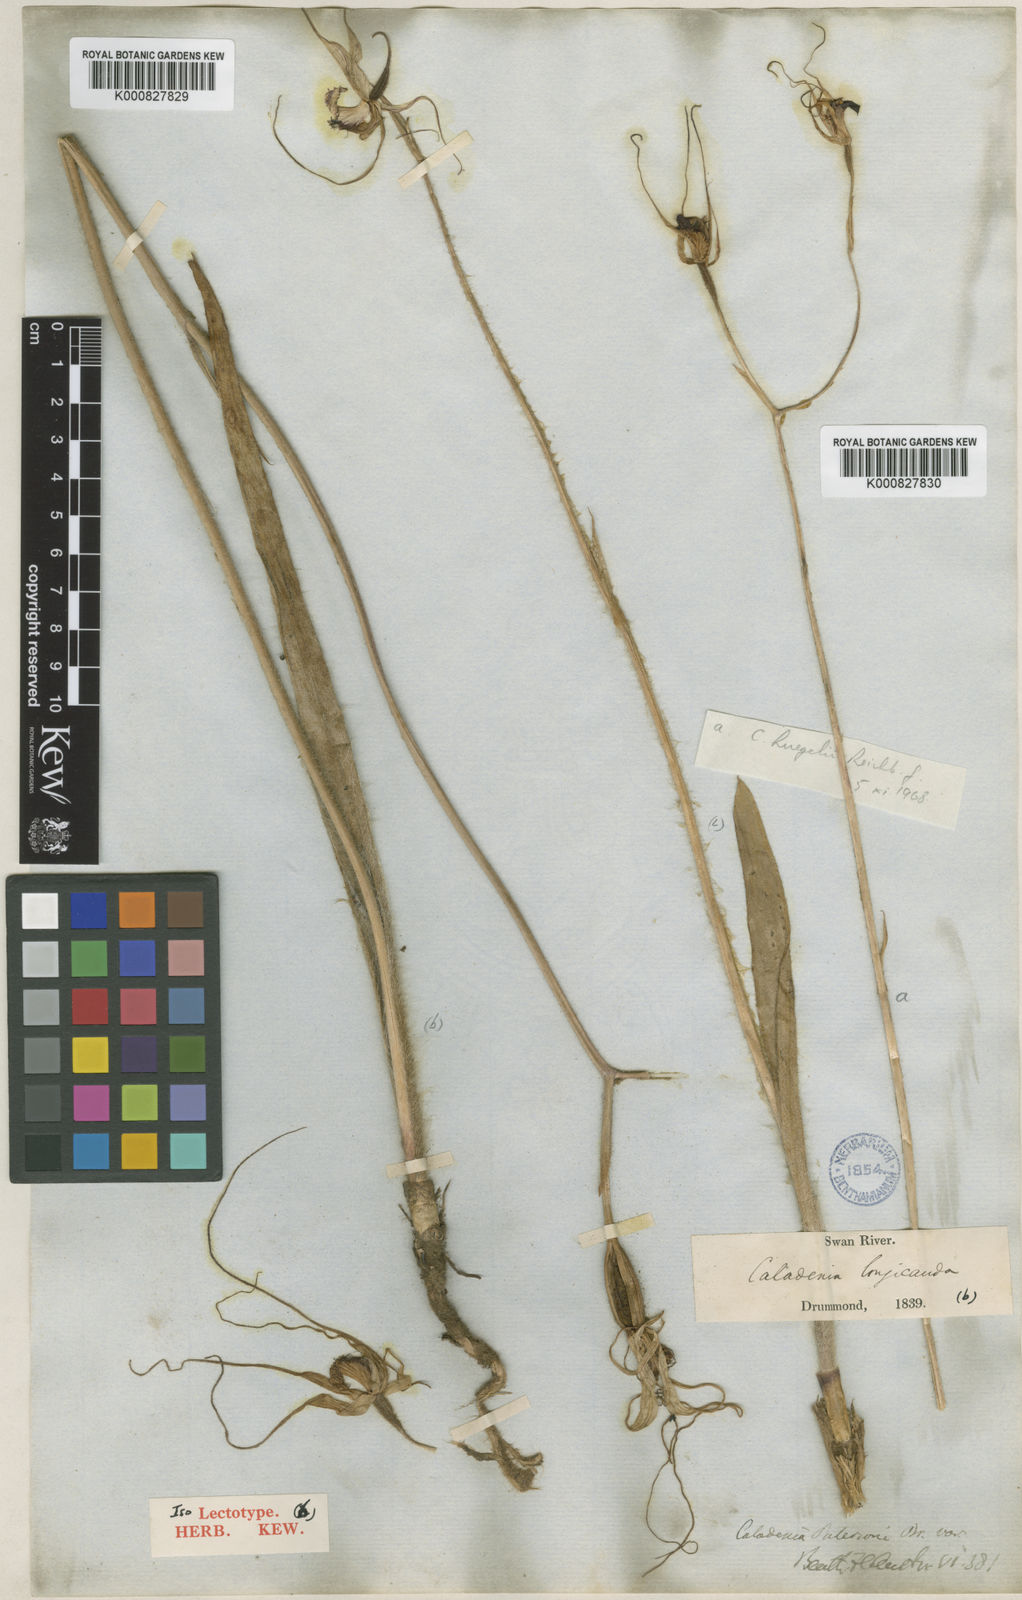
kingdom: Plantae
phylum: Tracheophyta
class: Liliopsida
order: Asparagales
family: Orchidaceae
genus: Caladenia
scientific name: Caladenia longicauda
